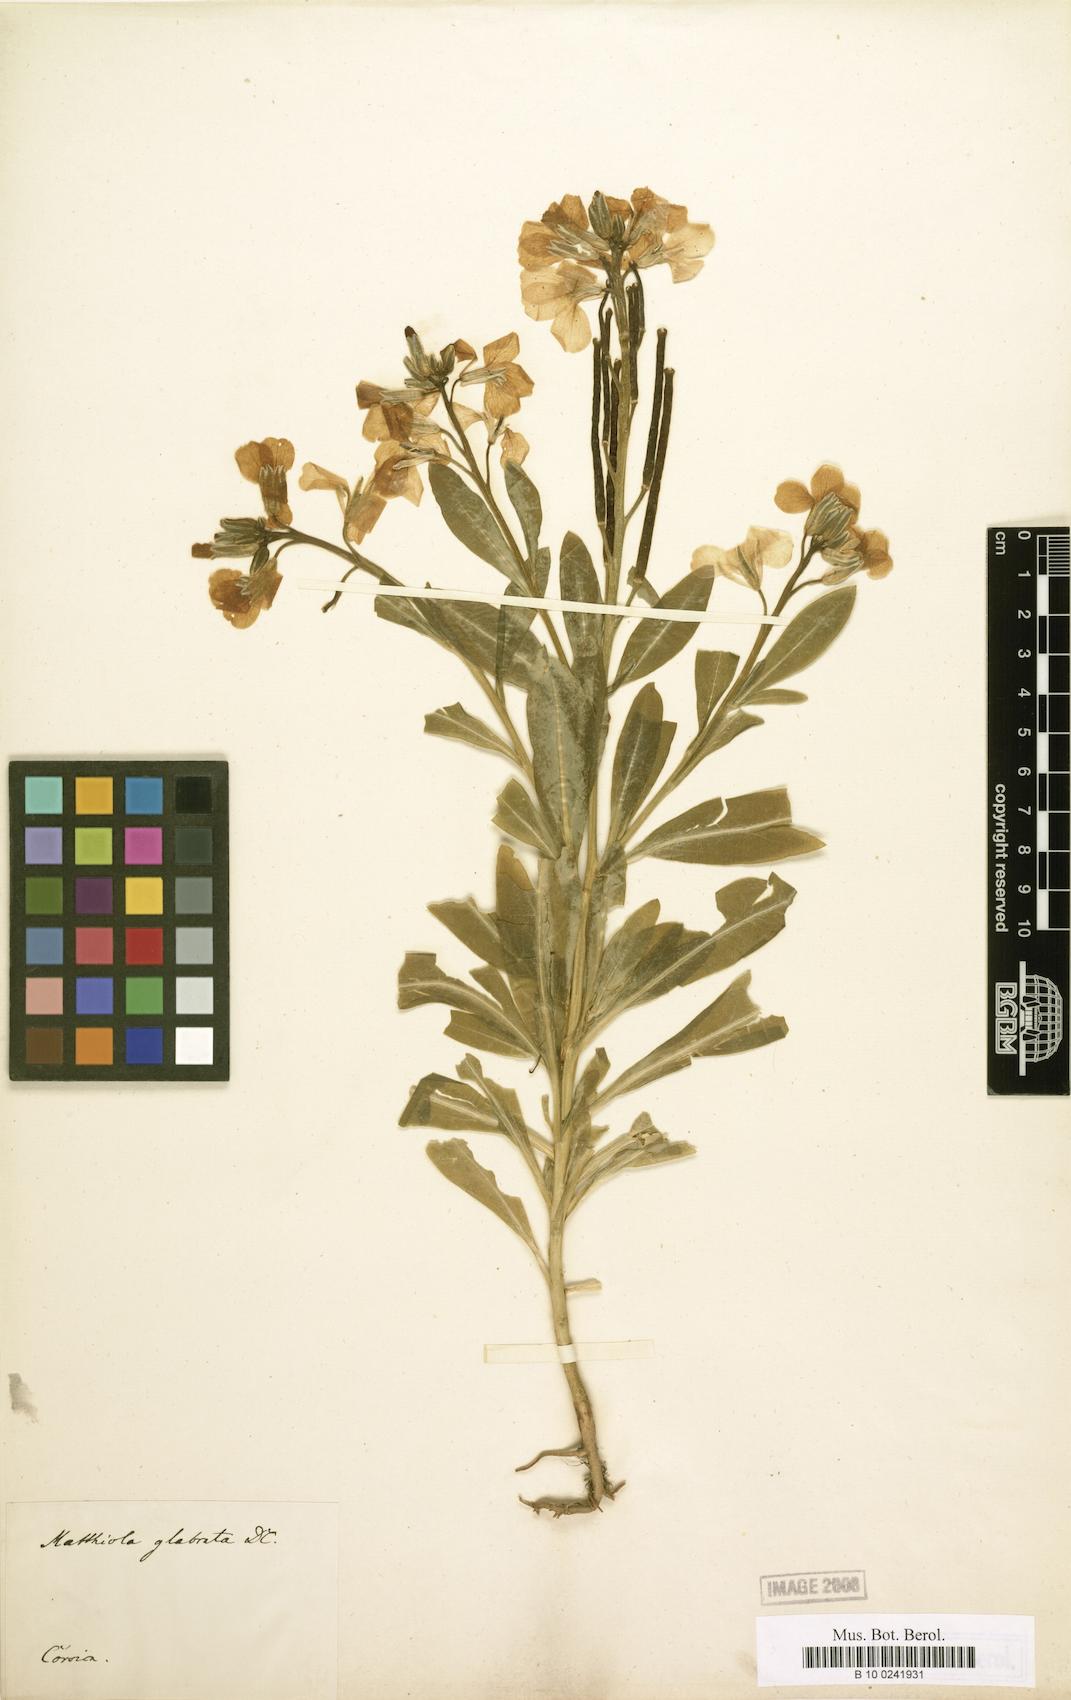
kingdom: Plantae
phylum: Tracheophyta
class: Magnoliopsida
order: Brassicales
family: Brassicaceae
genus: Matthiola
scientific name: Matthiola incana
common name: Hoary stock
